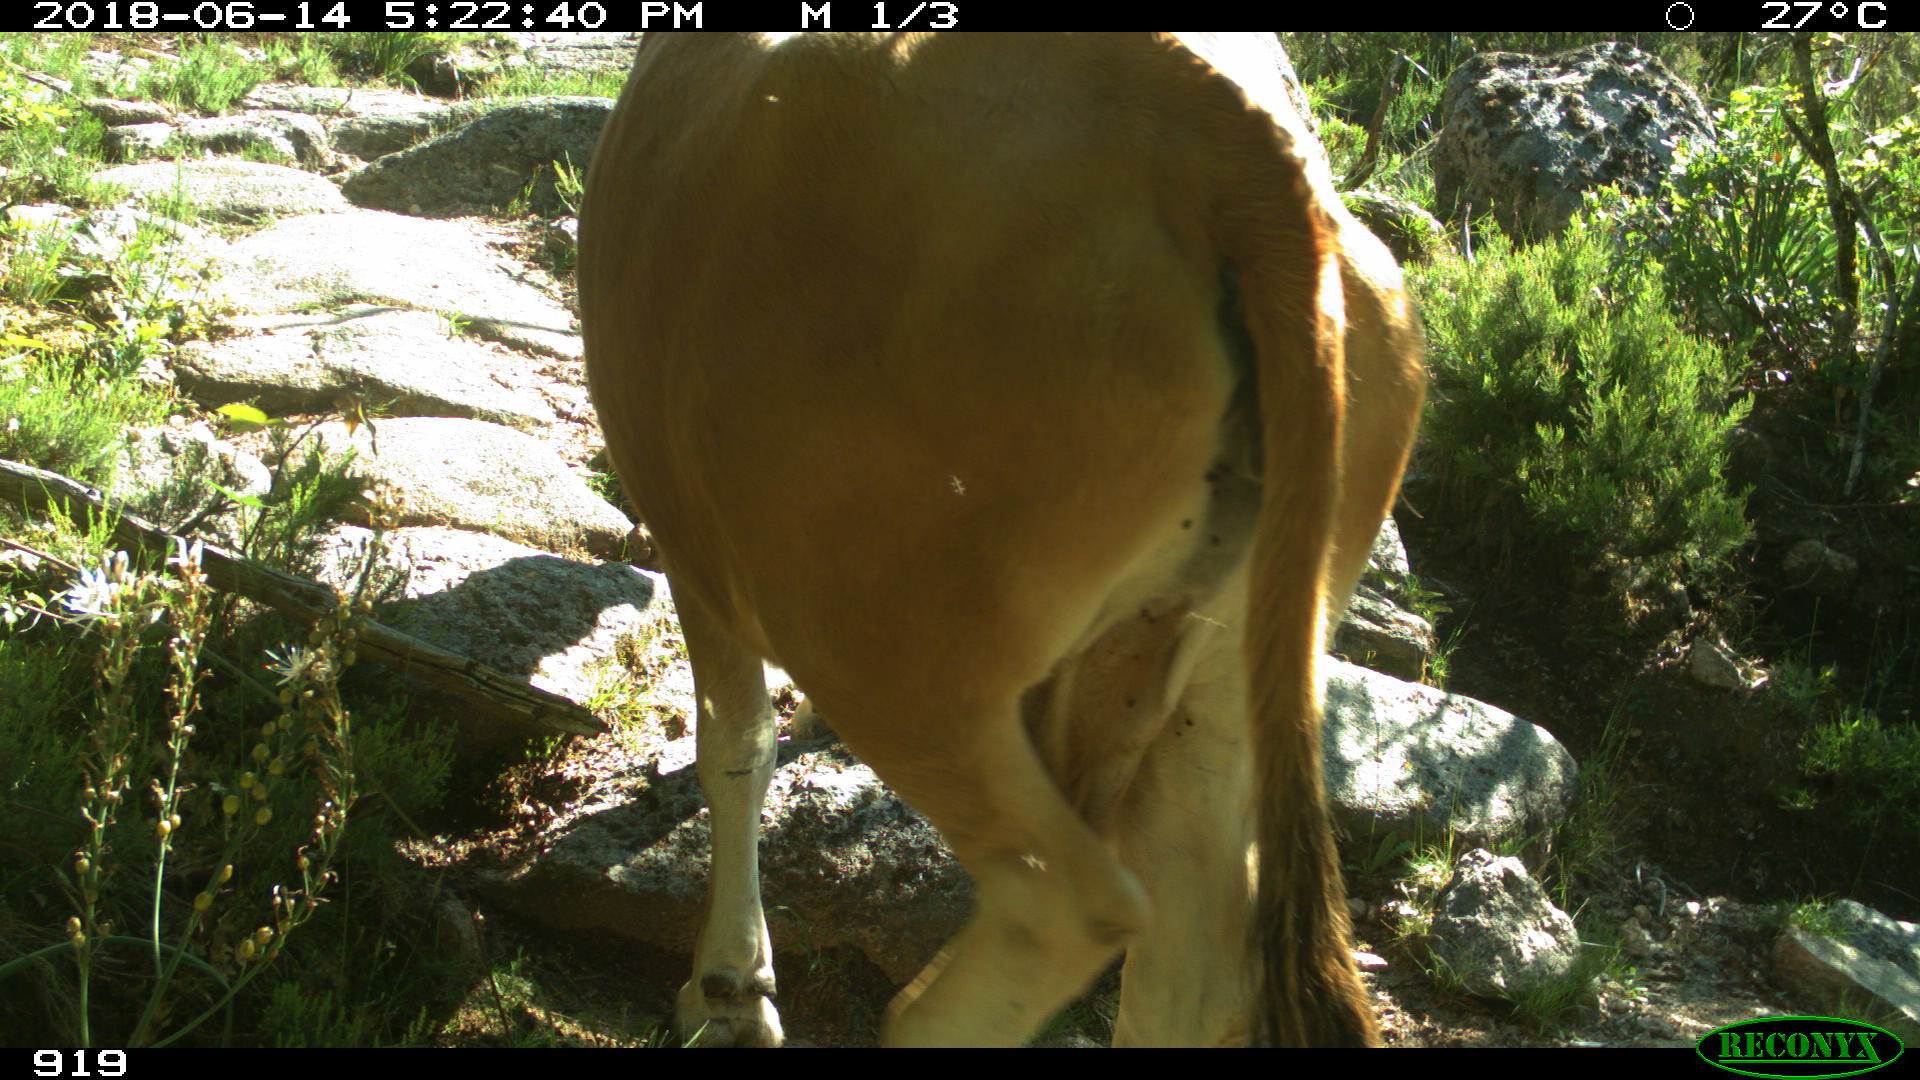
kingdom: Animalia
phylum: Chordata
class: Mammalia
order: Artiodactyla
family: Bovidae
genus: Bos
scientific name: Bos taurus
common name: Domesticated cattle
